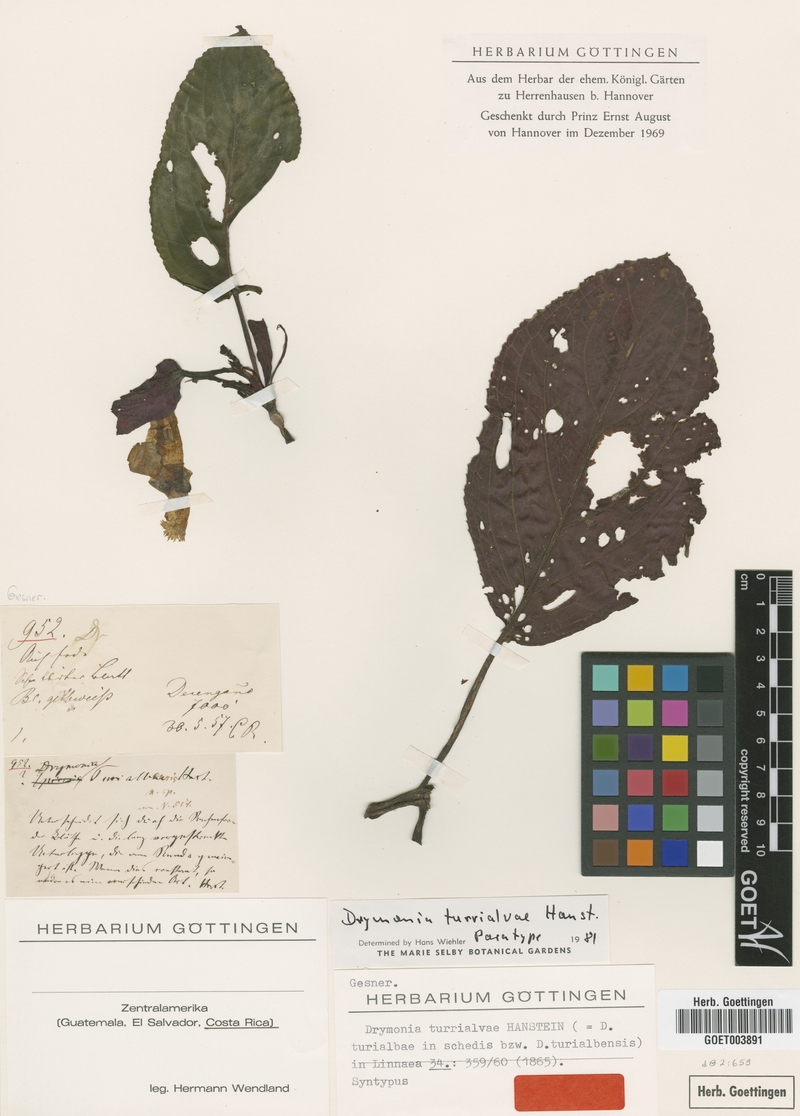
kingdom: Plantae
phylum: Tracheophyta
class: Magnoliopsida
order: Lamiales
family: Gesneriaceae
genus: Drymonia
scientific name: Drymonia turrialvae
